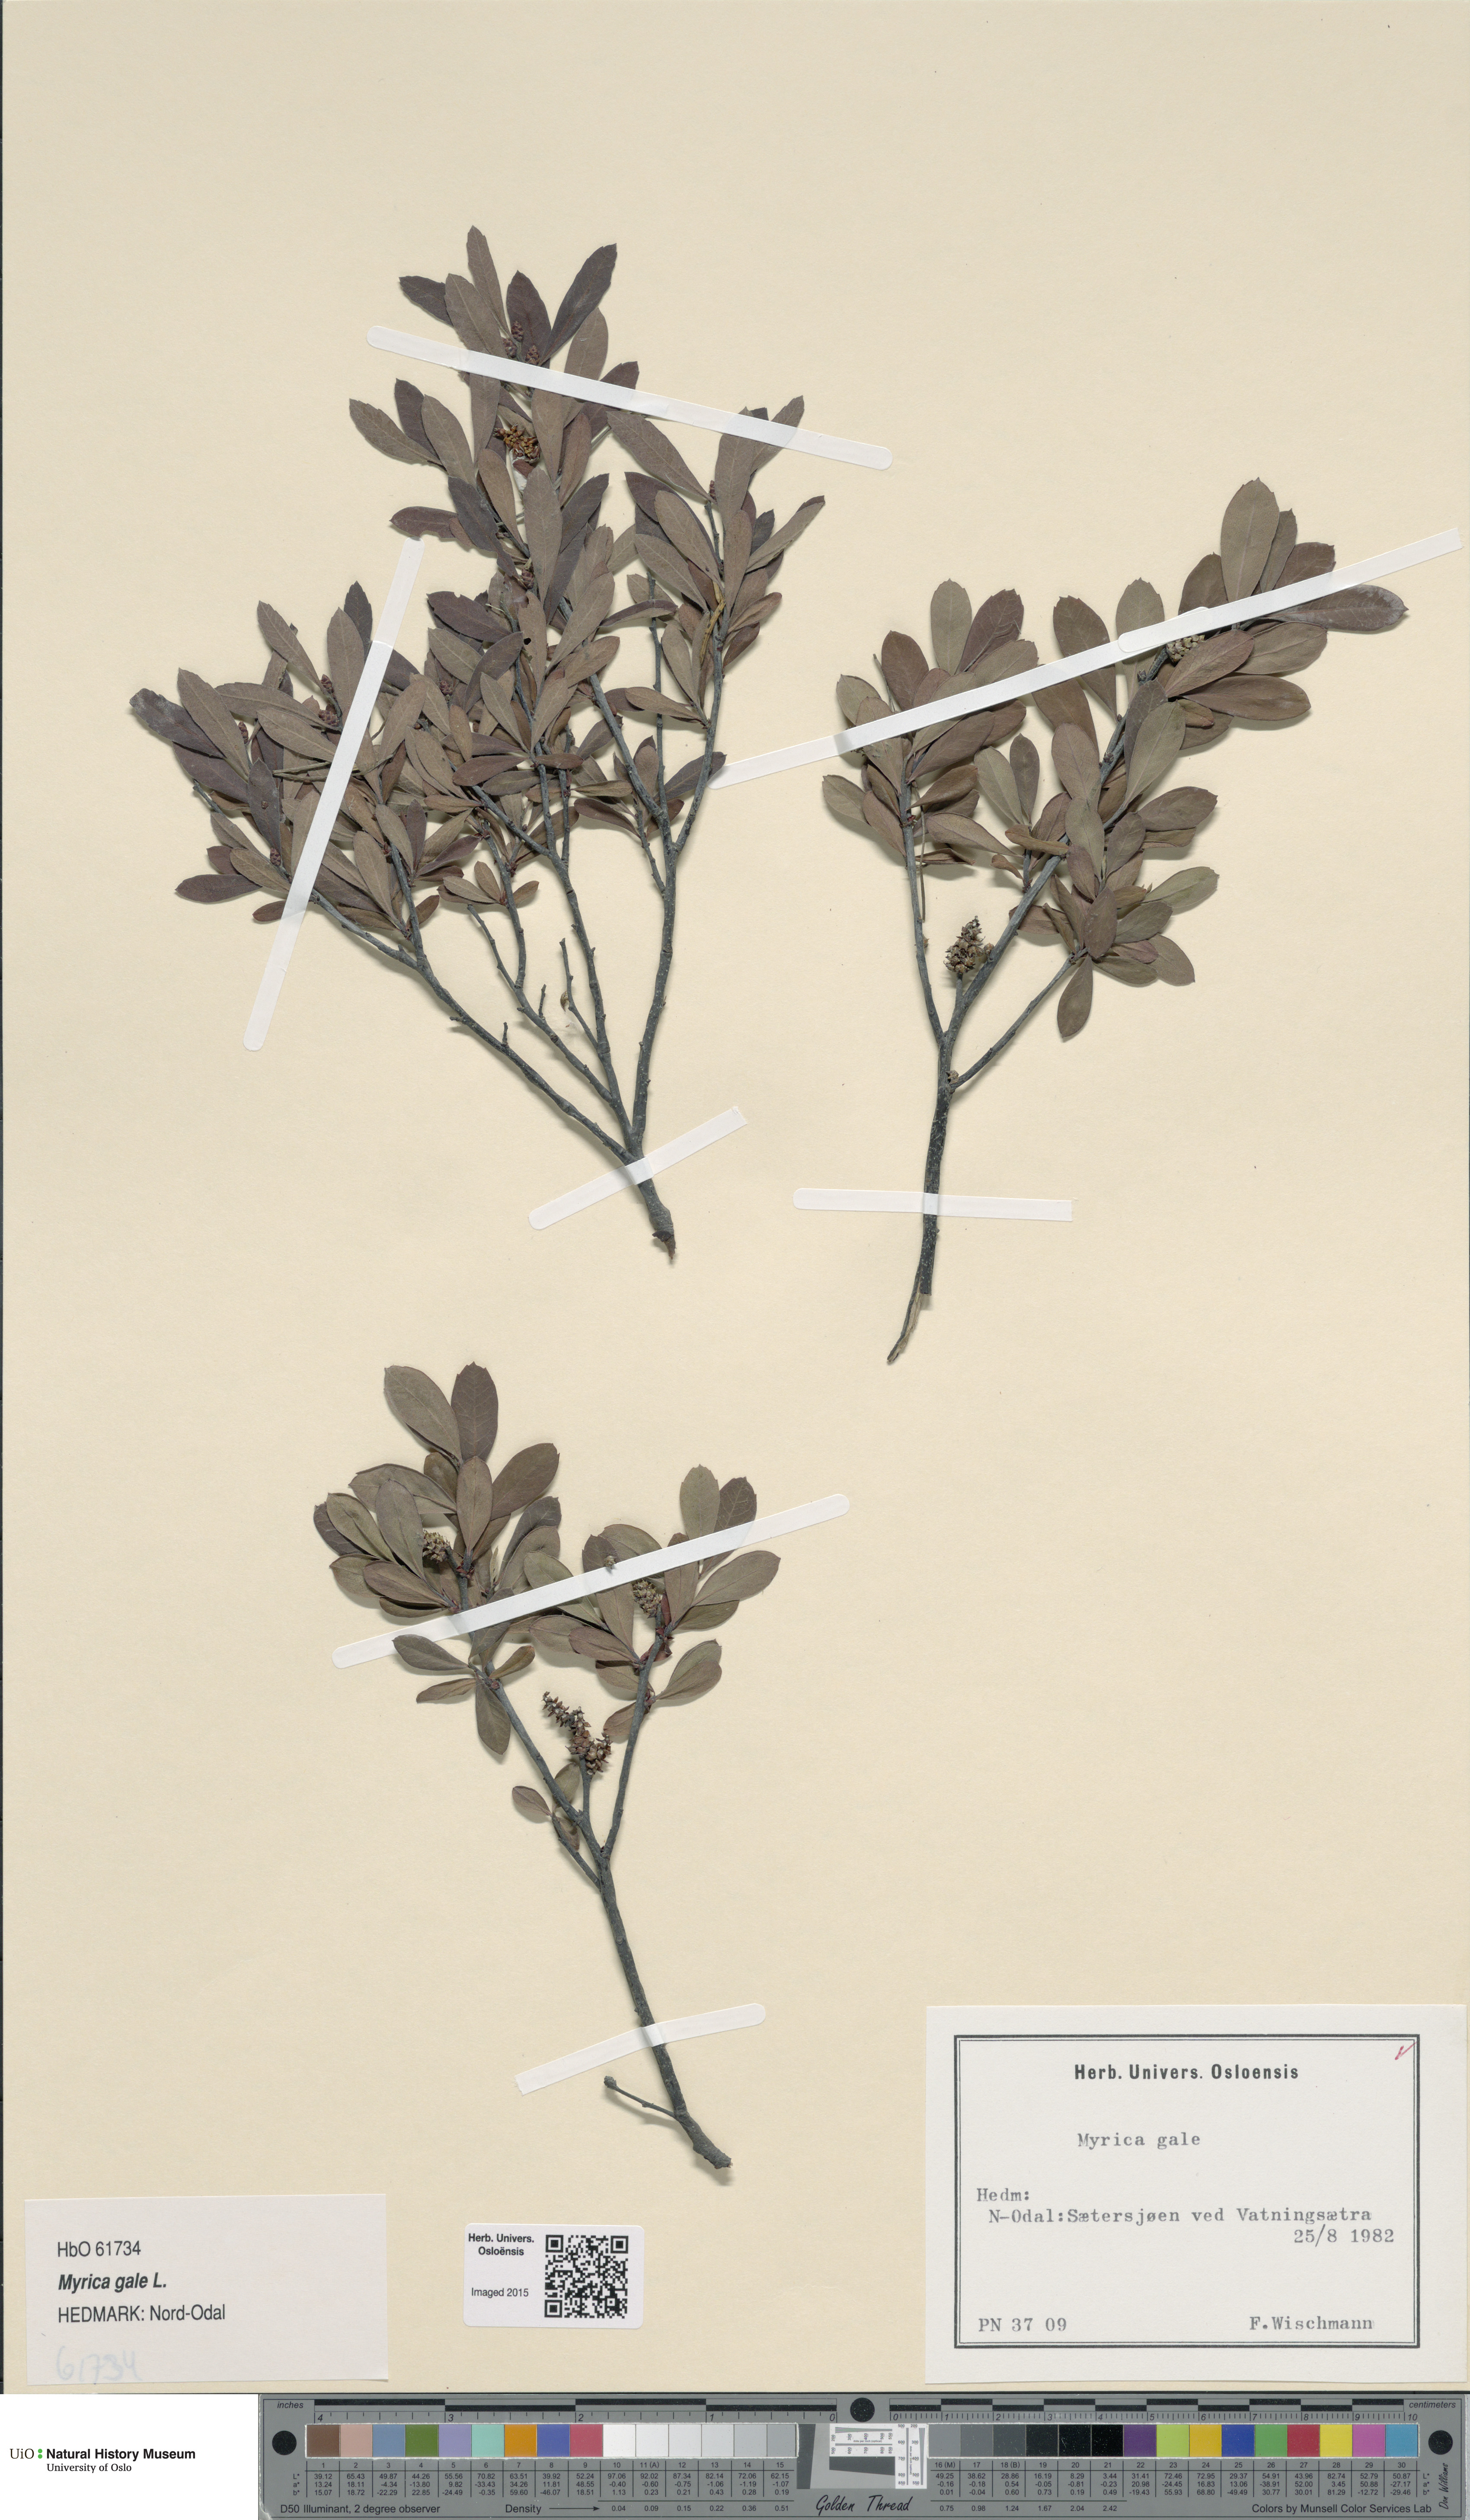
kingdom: Plantae
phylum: Tracheophyta
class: Magnoliopsida
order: Fagales
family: Myricaceae
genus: Myrica
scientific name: Myrica gale
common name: Sweet gale
